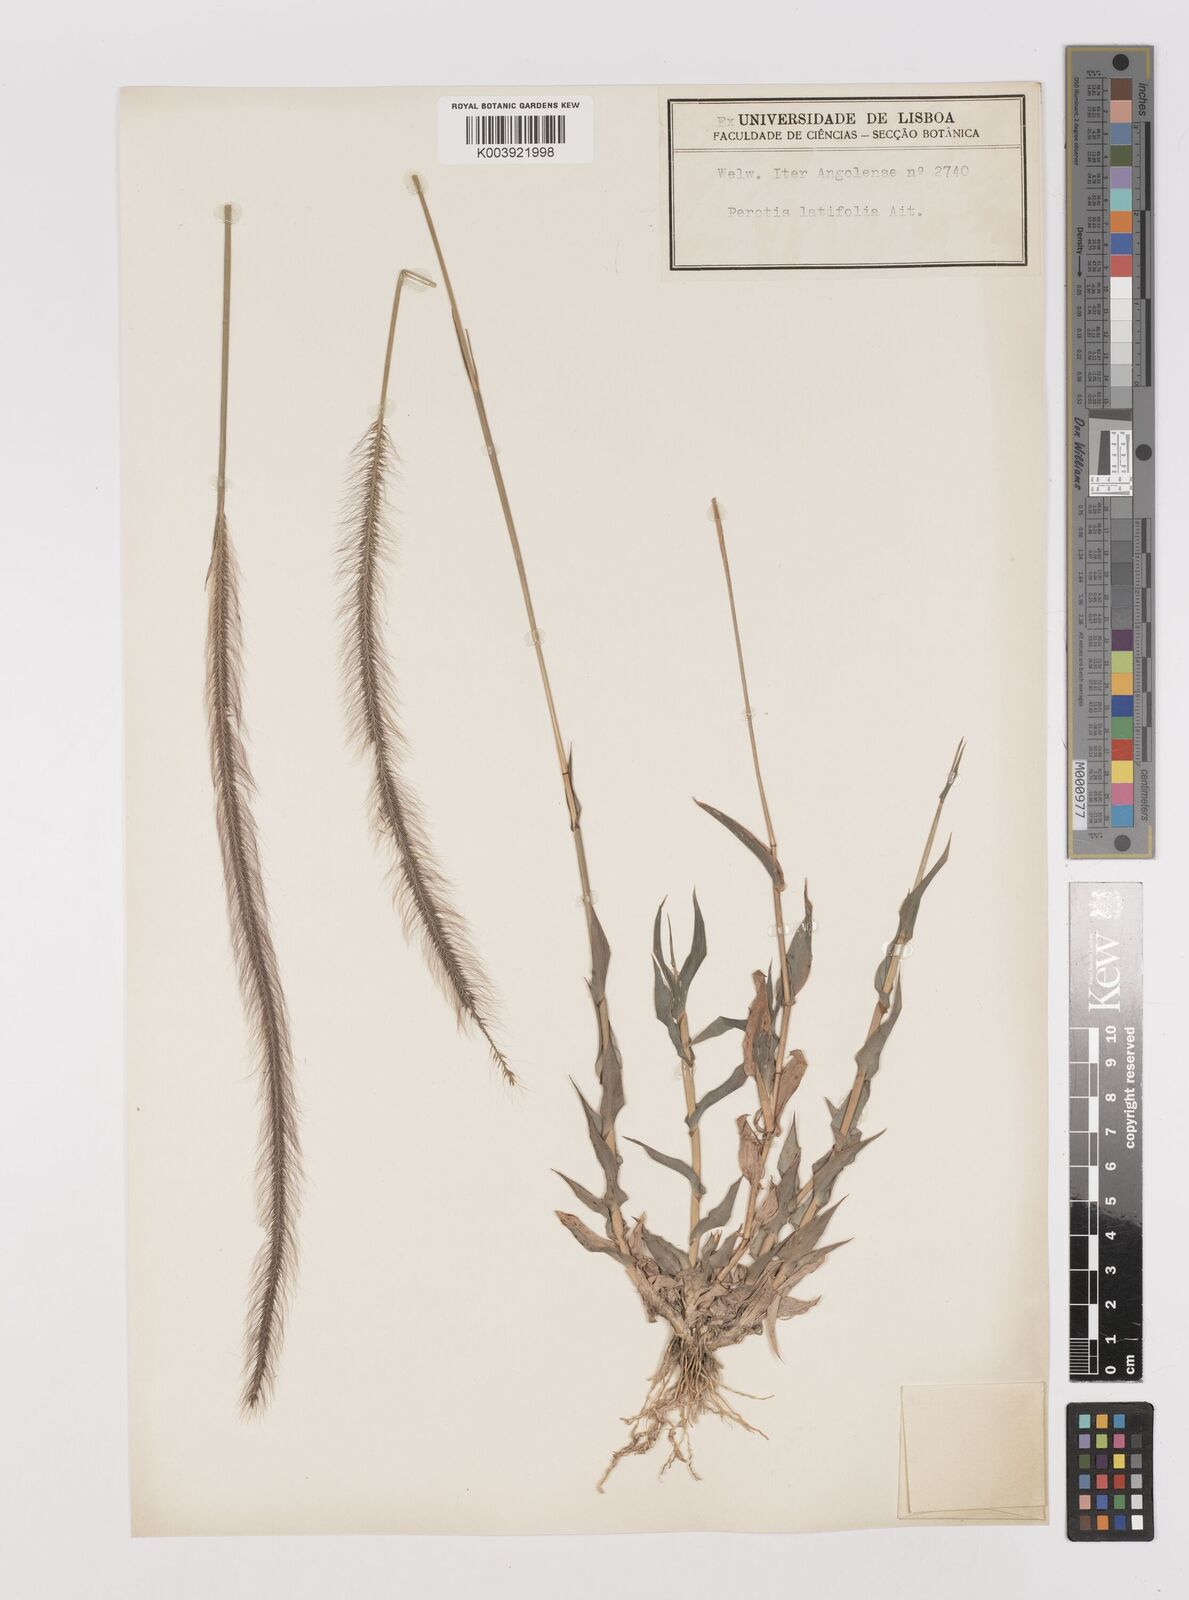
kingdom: Plantae
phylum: Tracheophyta
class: Liliopsida
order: Poales
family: Poaceae
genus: Perotis
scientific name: Perotis patens
